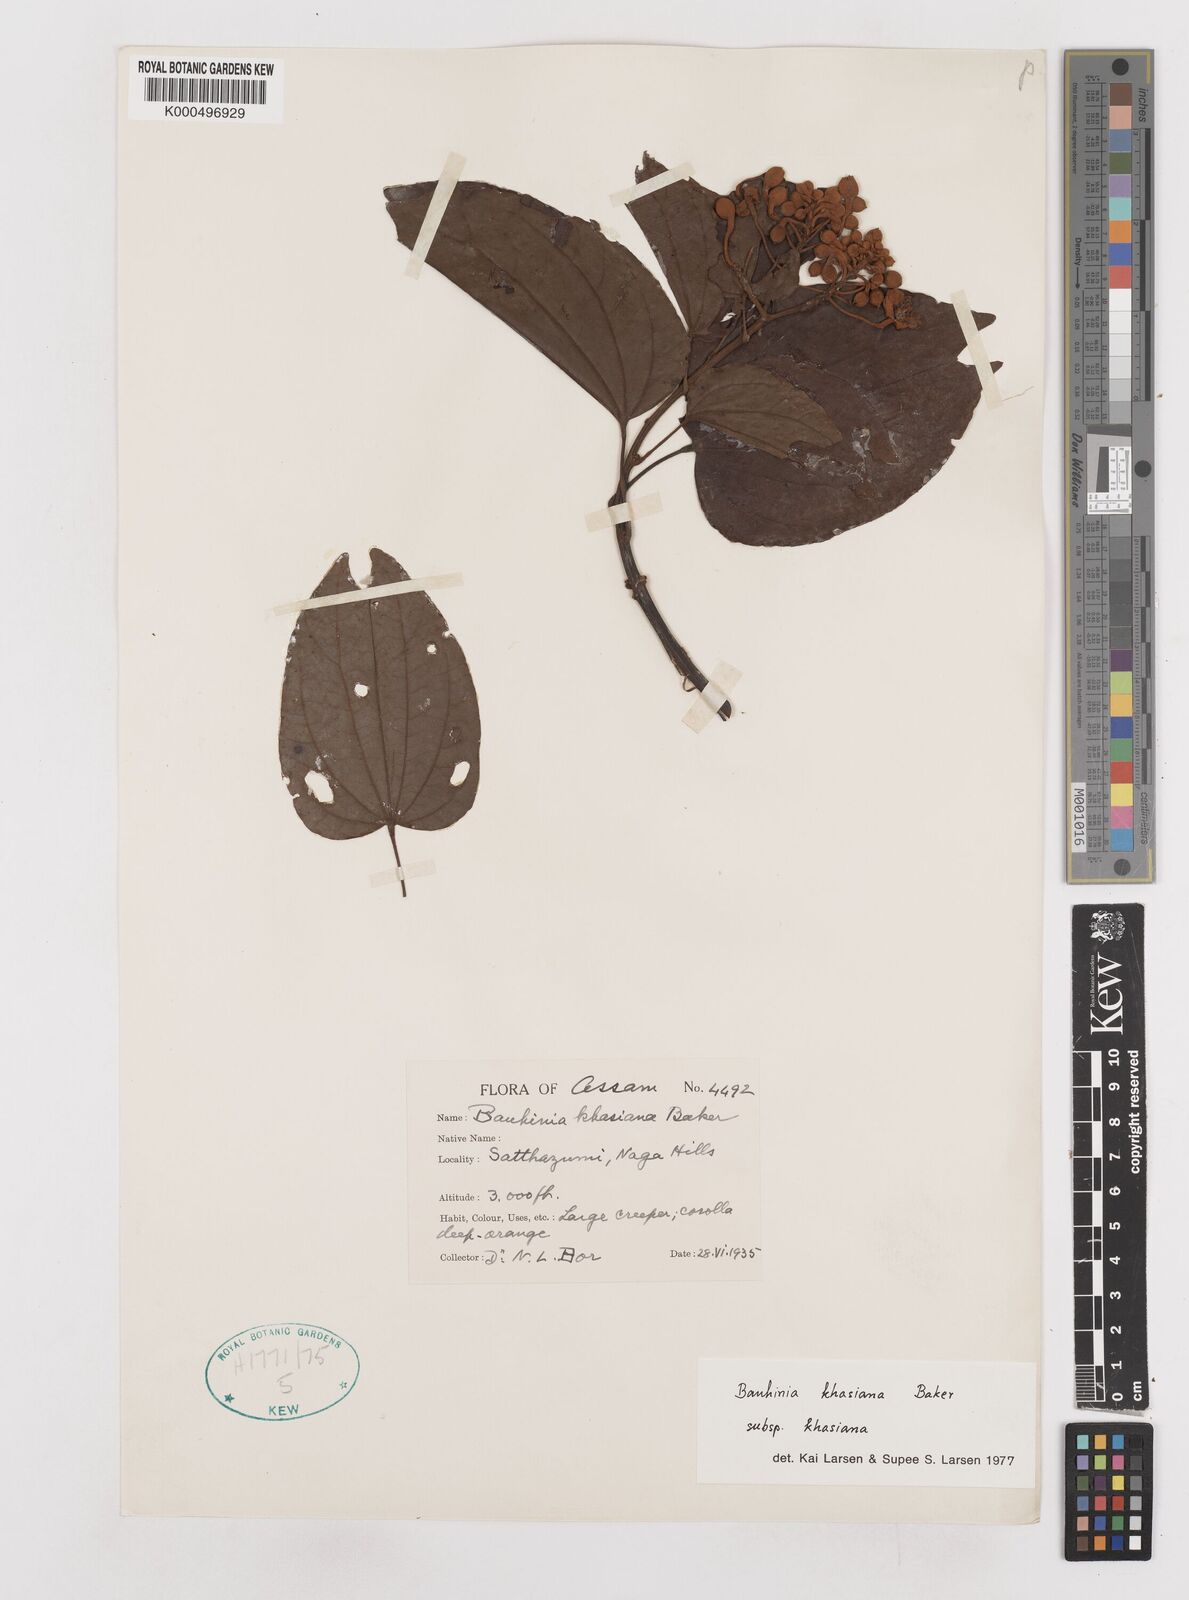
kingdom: Plantae
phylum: Tracheophyta
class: Magnoliopsida
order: Fabales
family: Fabaceae
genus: Phanera
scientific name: Phanera khasiana
